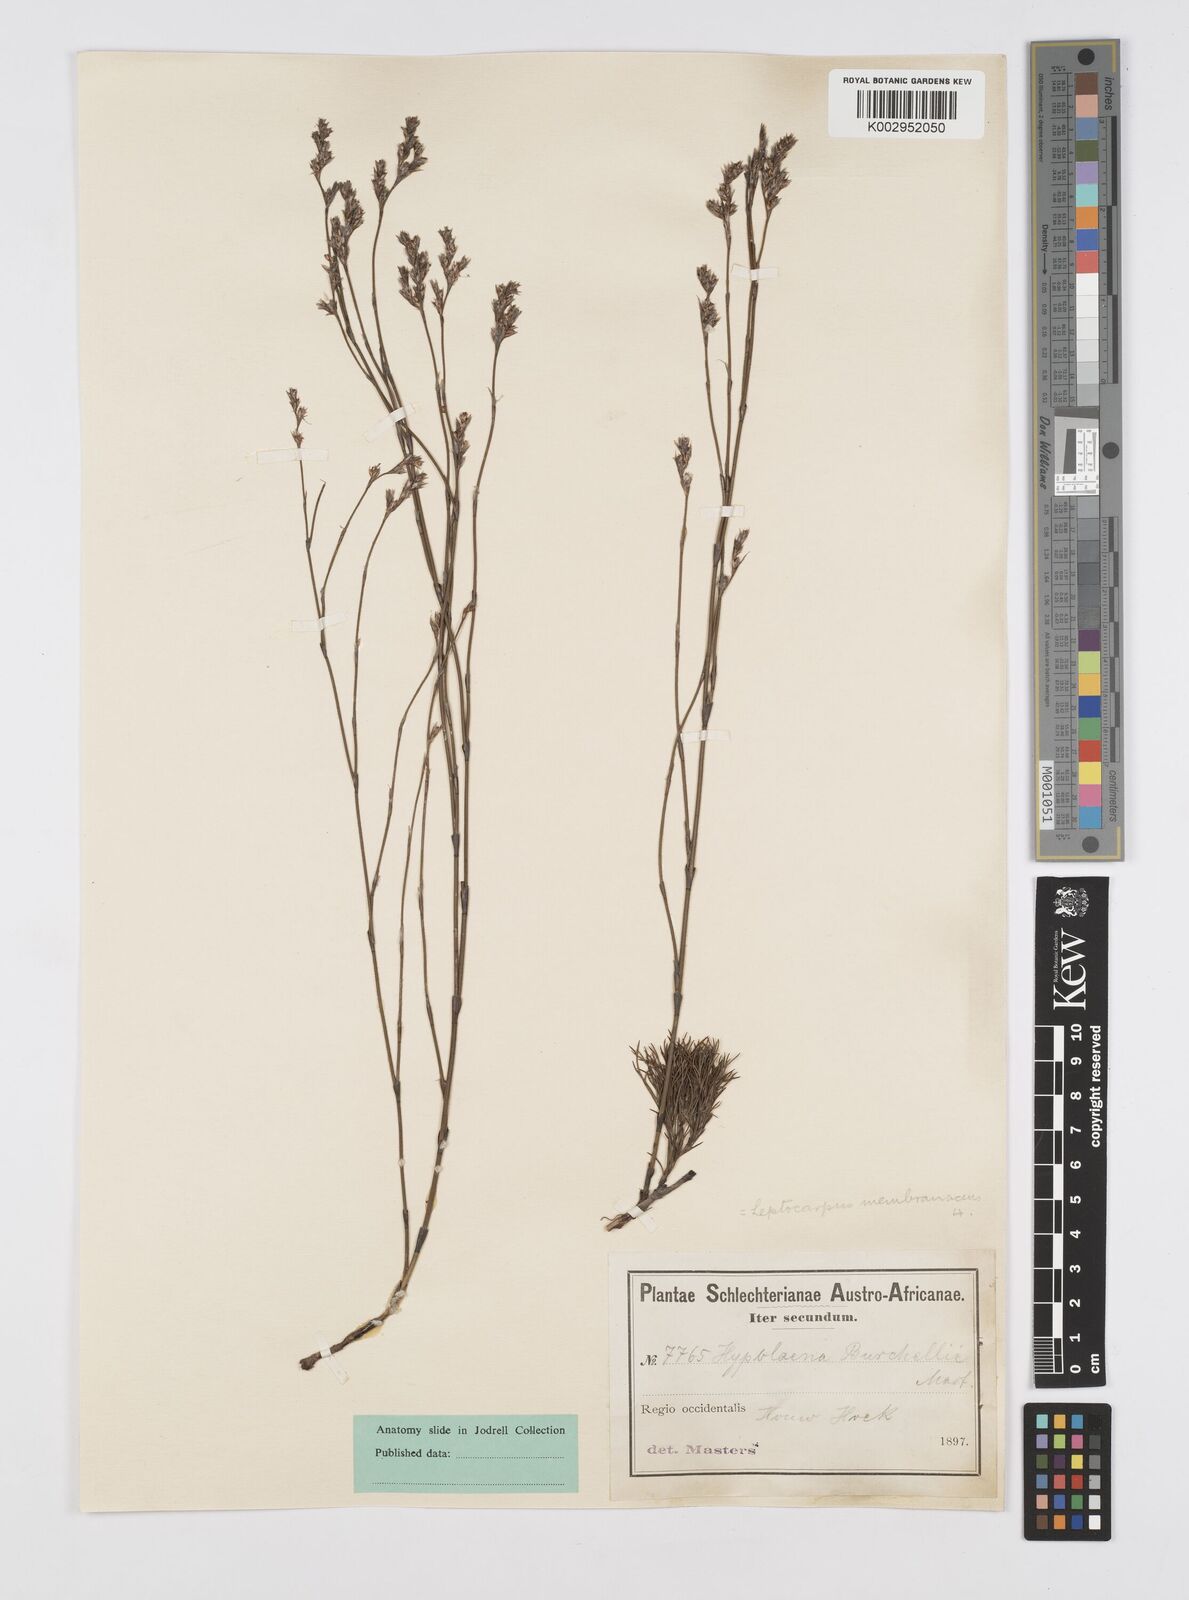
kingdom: Plantae
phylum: Tracheophyta
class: Liliopsida
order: Poales
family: Restionaceae
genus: Elegia
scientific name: Elegia intermedia
